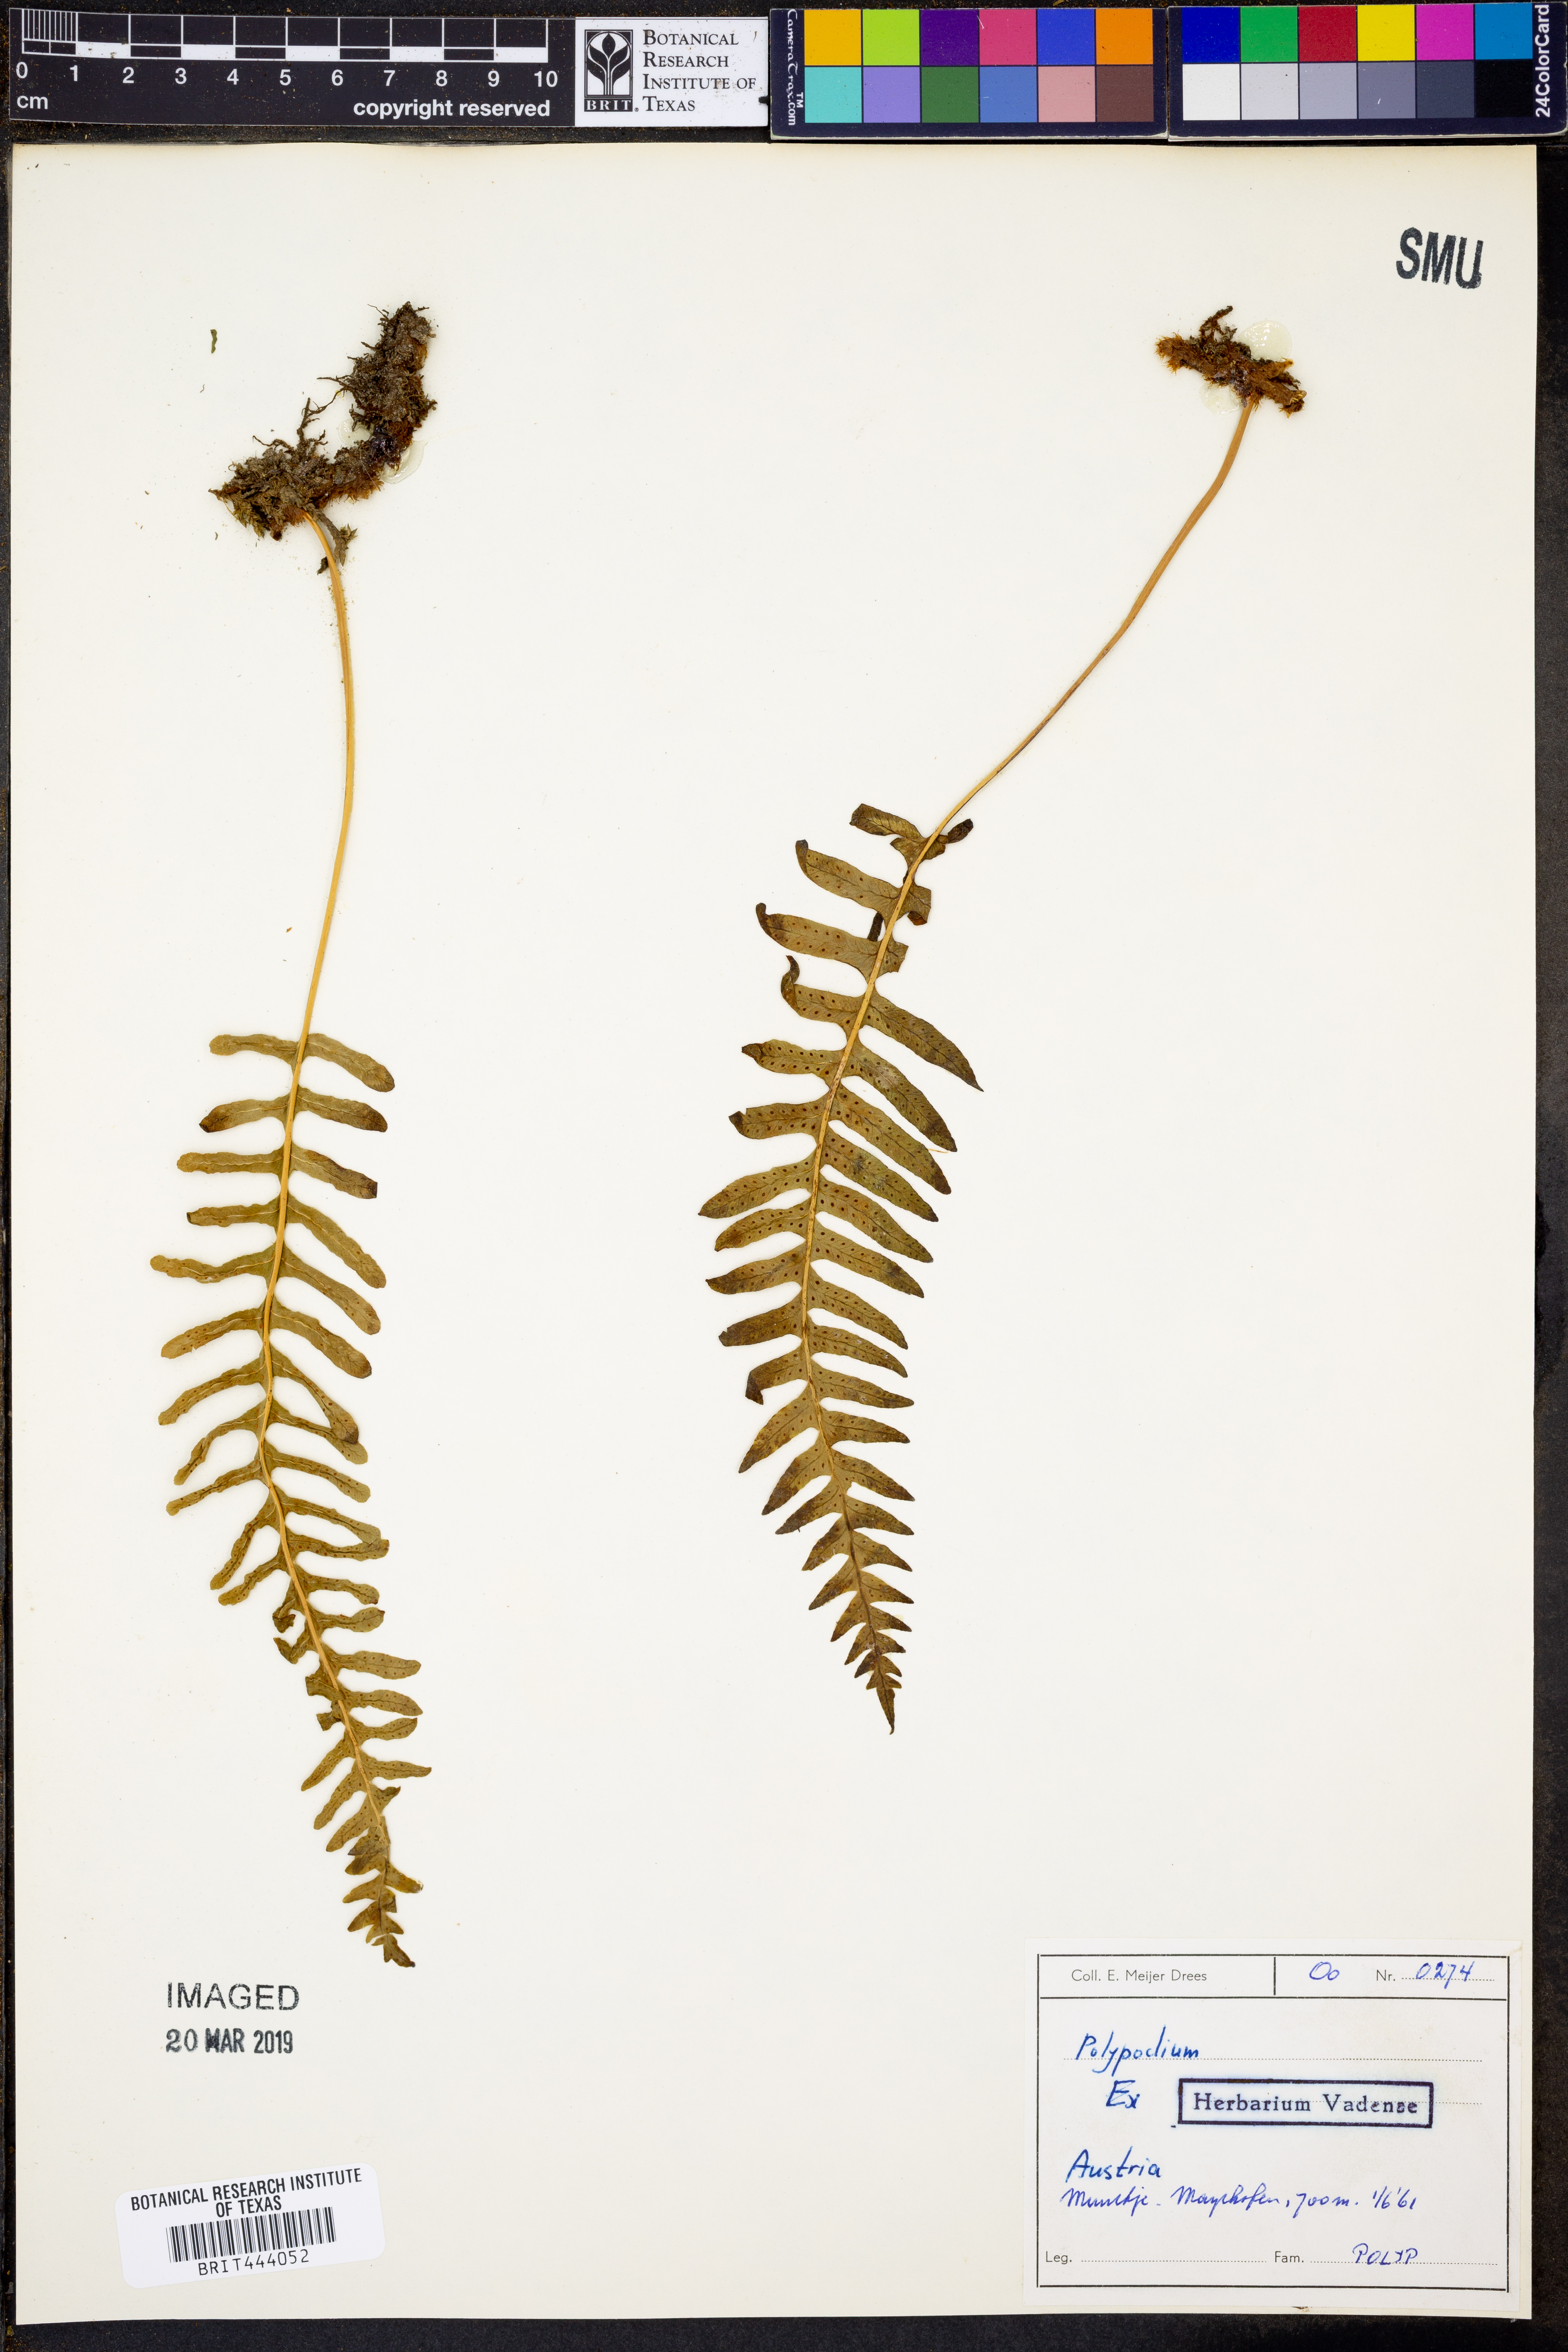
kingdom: Plantae
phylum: Tracheophyta
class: Polypodiopsida
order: Polypodiales
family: Polypodiaceae
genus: Polypodium
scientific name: Polypodium
